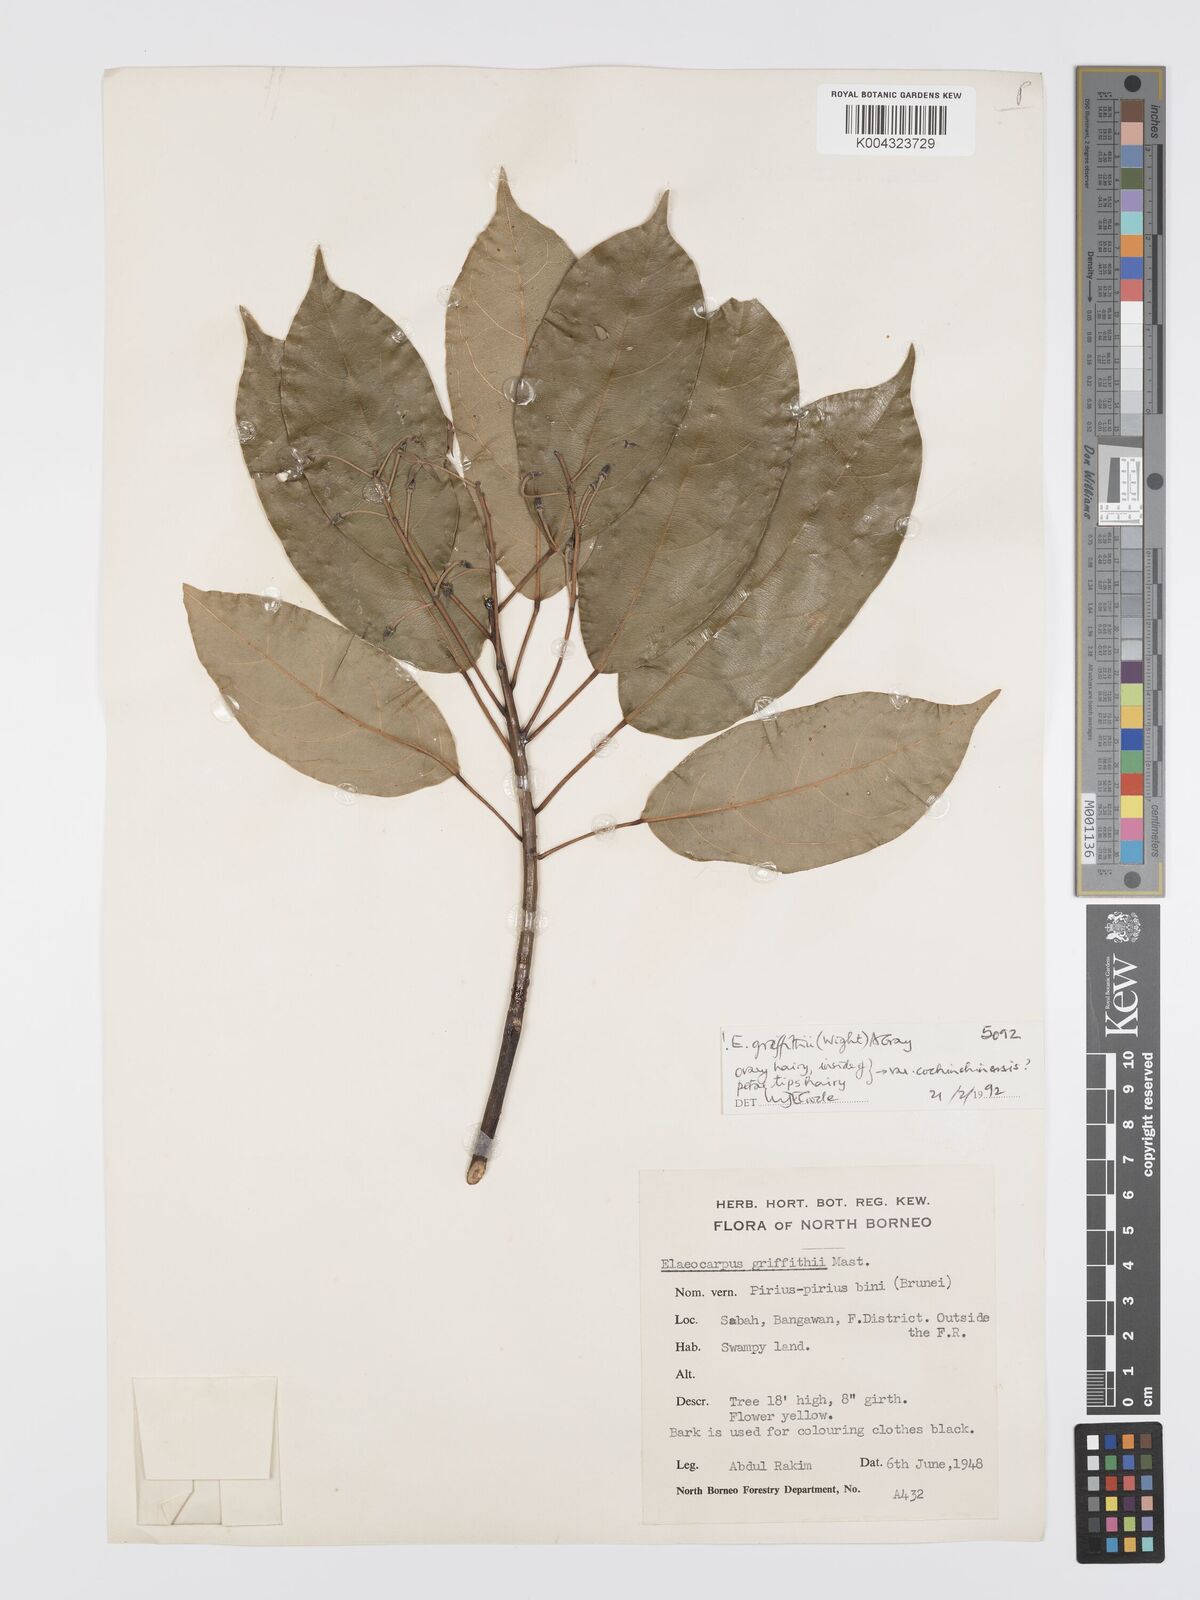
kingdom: Plantae
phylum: Tracheophyta
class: Magnoliopsida
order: Oxalidales
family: Elaeocarpaceae
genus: Elaeocarpus
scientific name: Elaeocarpus griffithii
